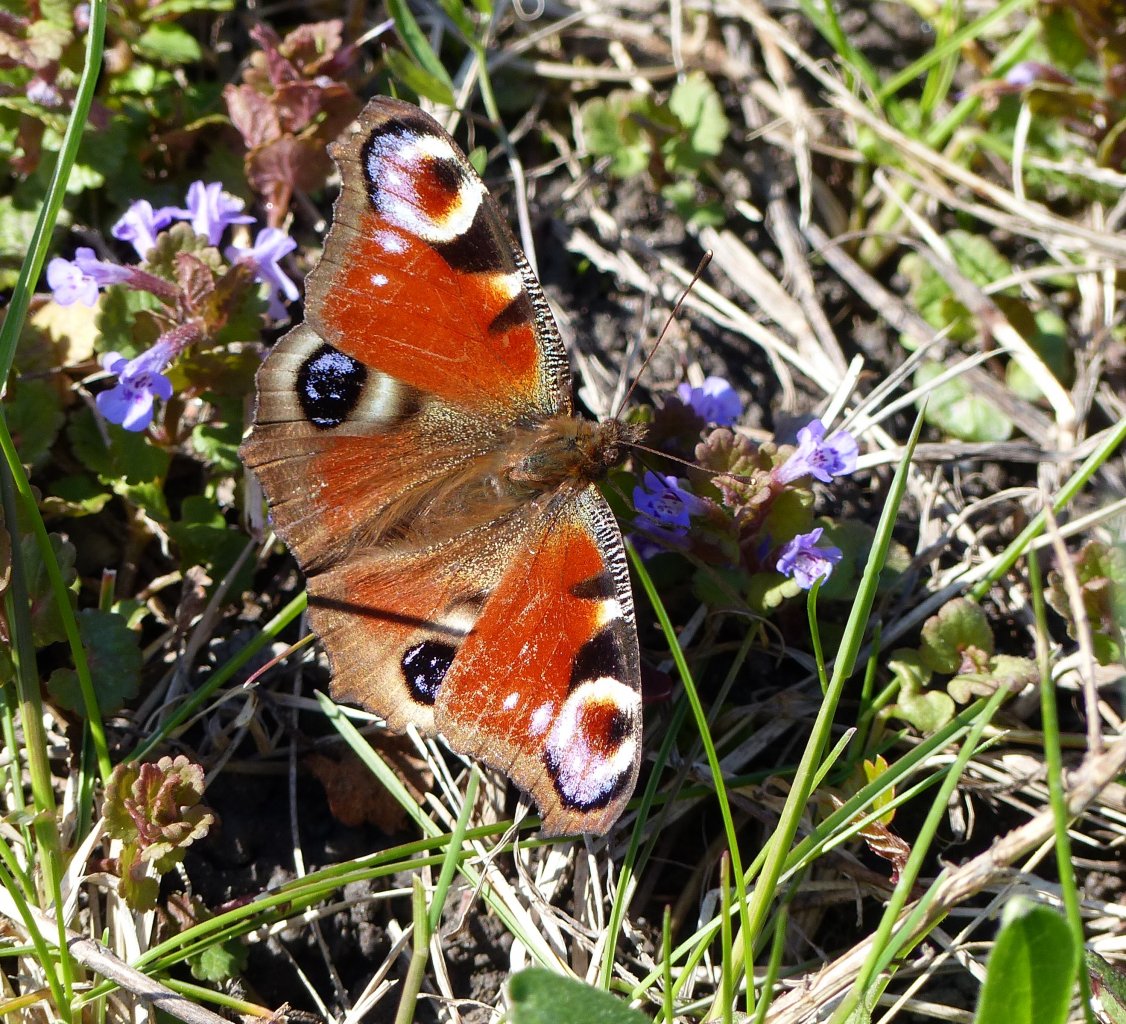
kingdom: Animalia
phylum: Arthropoda
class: Insecta
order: Lepidoptera
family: Nymphalidae
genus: Aglais
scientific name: Aglais io
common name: European Peacock
